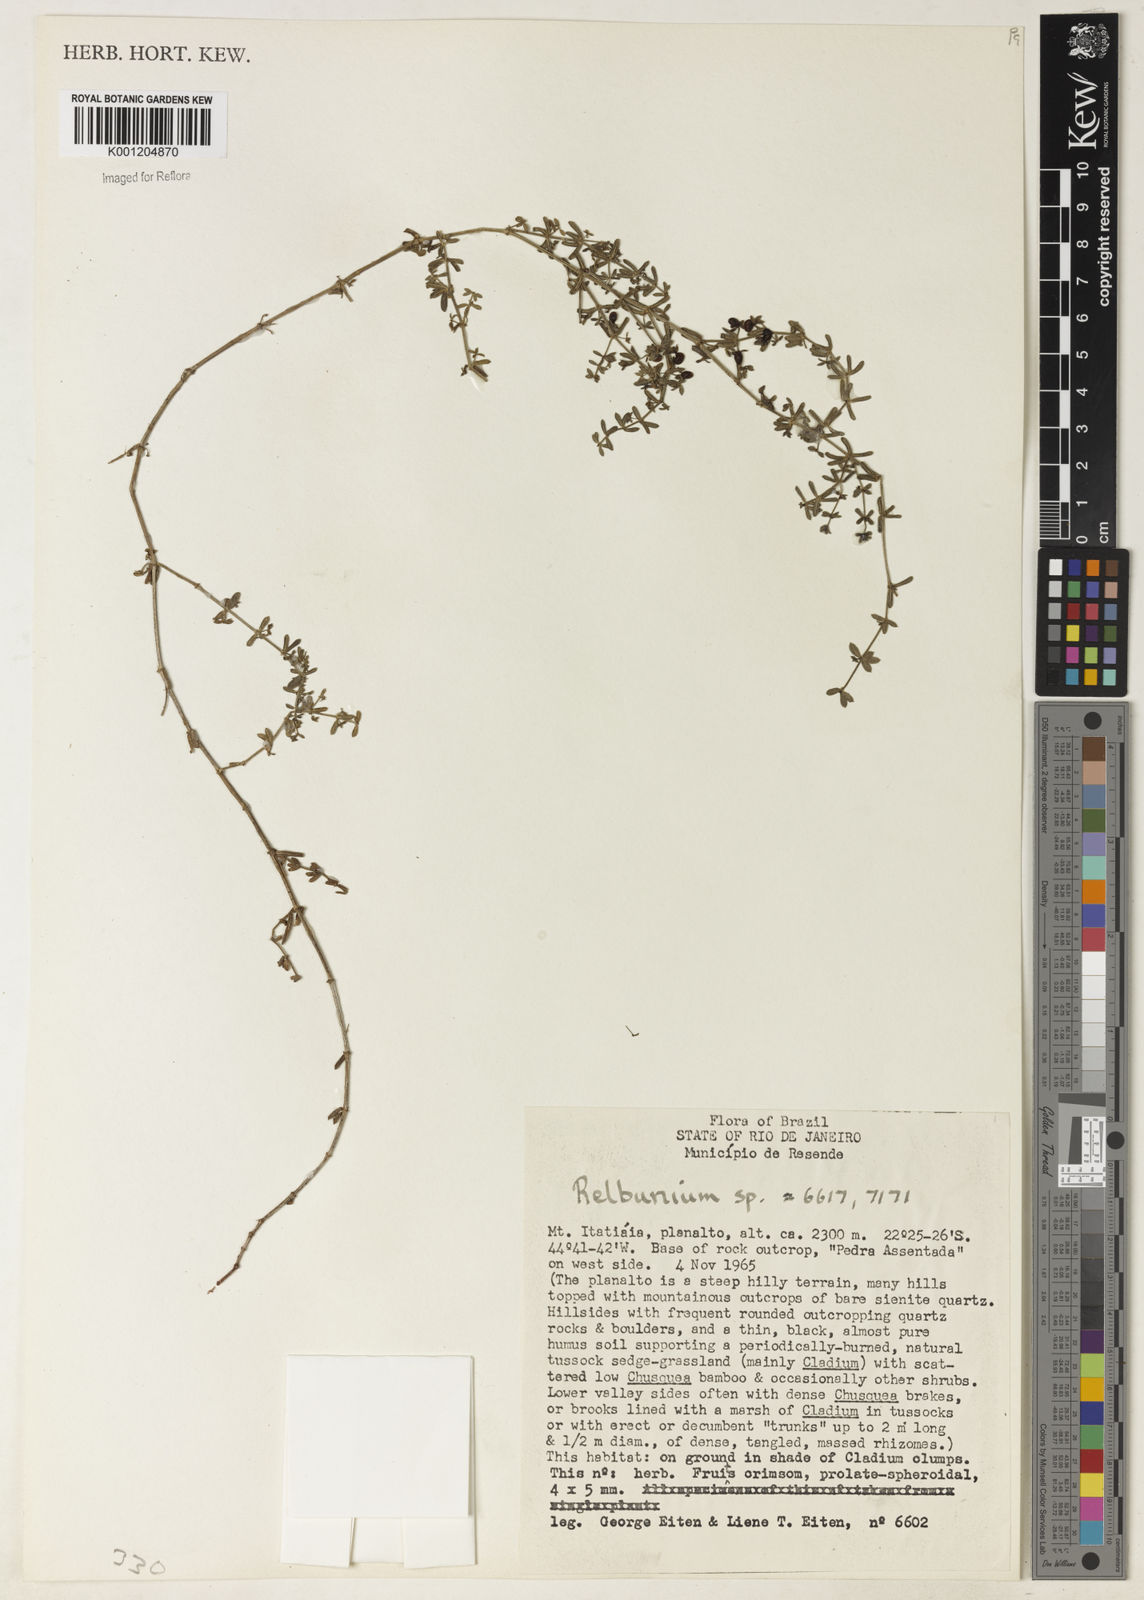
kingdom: Plantae
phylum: Tracheophyta
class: Magnoliopsida
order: Gentianales
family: Rubiaceae
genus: Galium
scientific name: Galium
